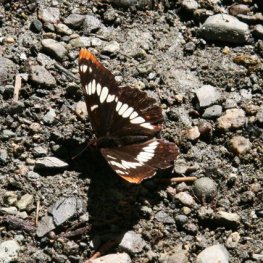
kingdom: Animalia
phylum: Arthropoda
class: Insecta
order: Lepidoptera
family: Nymphalidae
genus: Limenitis
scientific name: Limenitis lorquini
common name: Lorquin's Admiral
